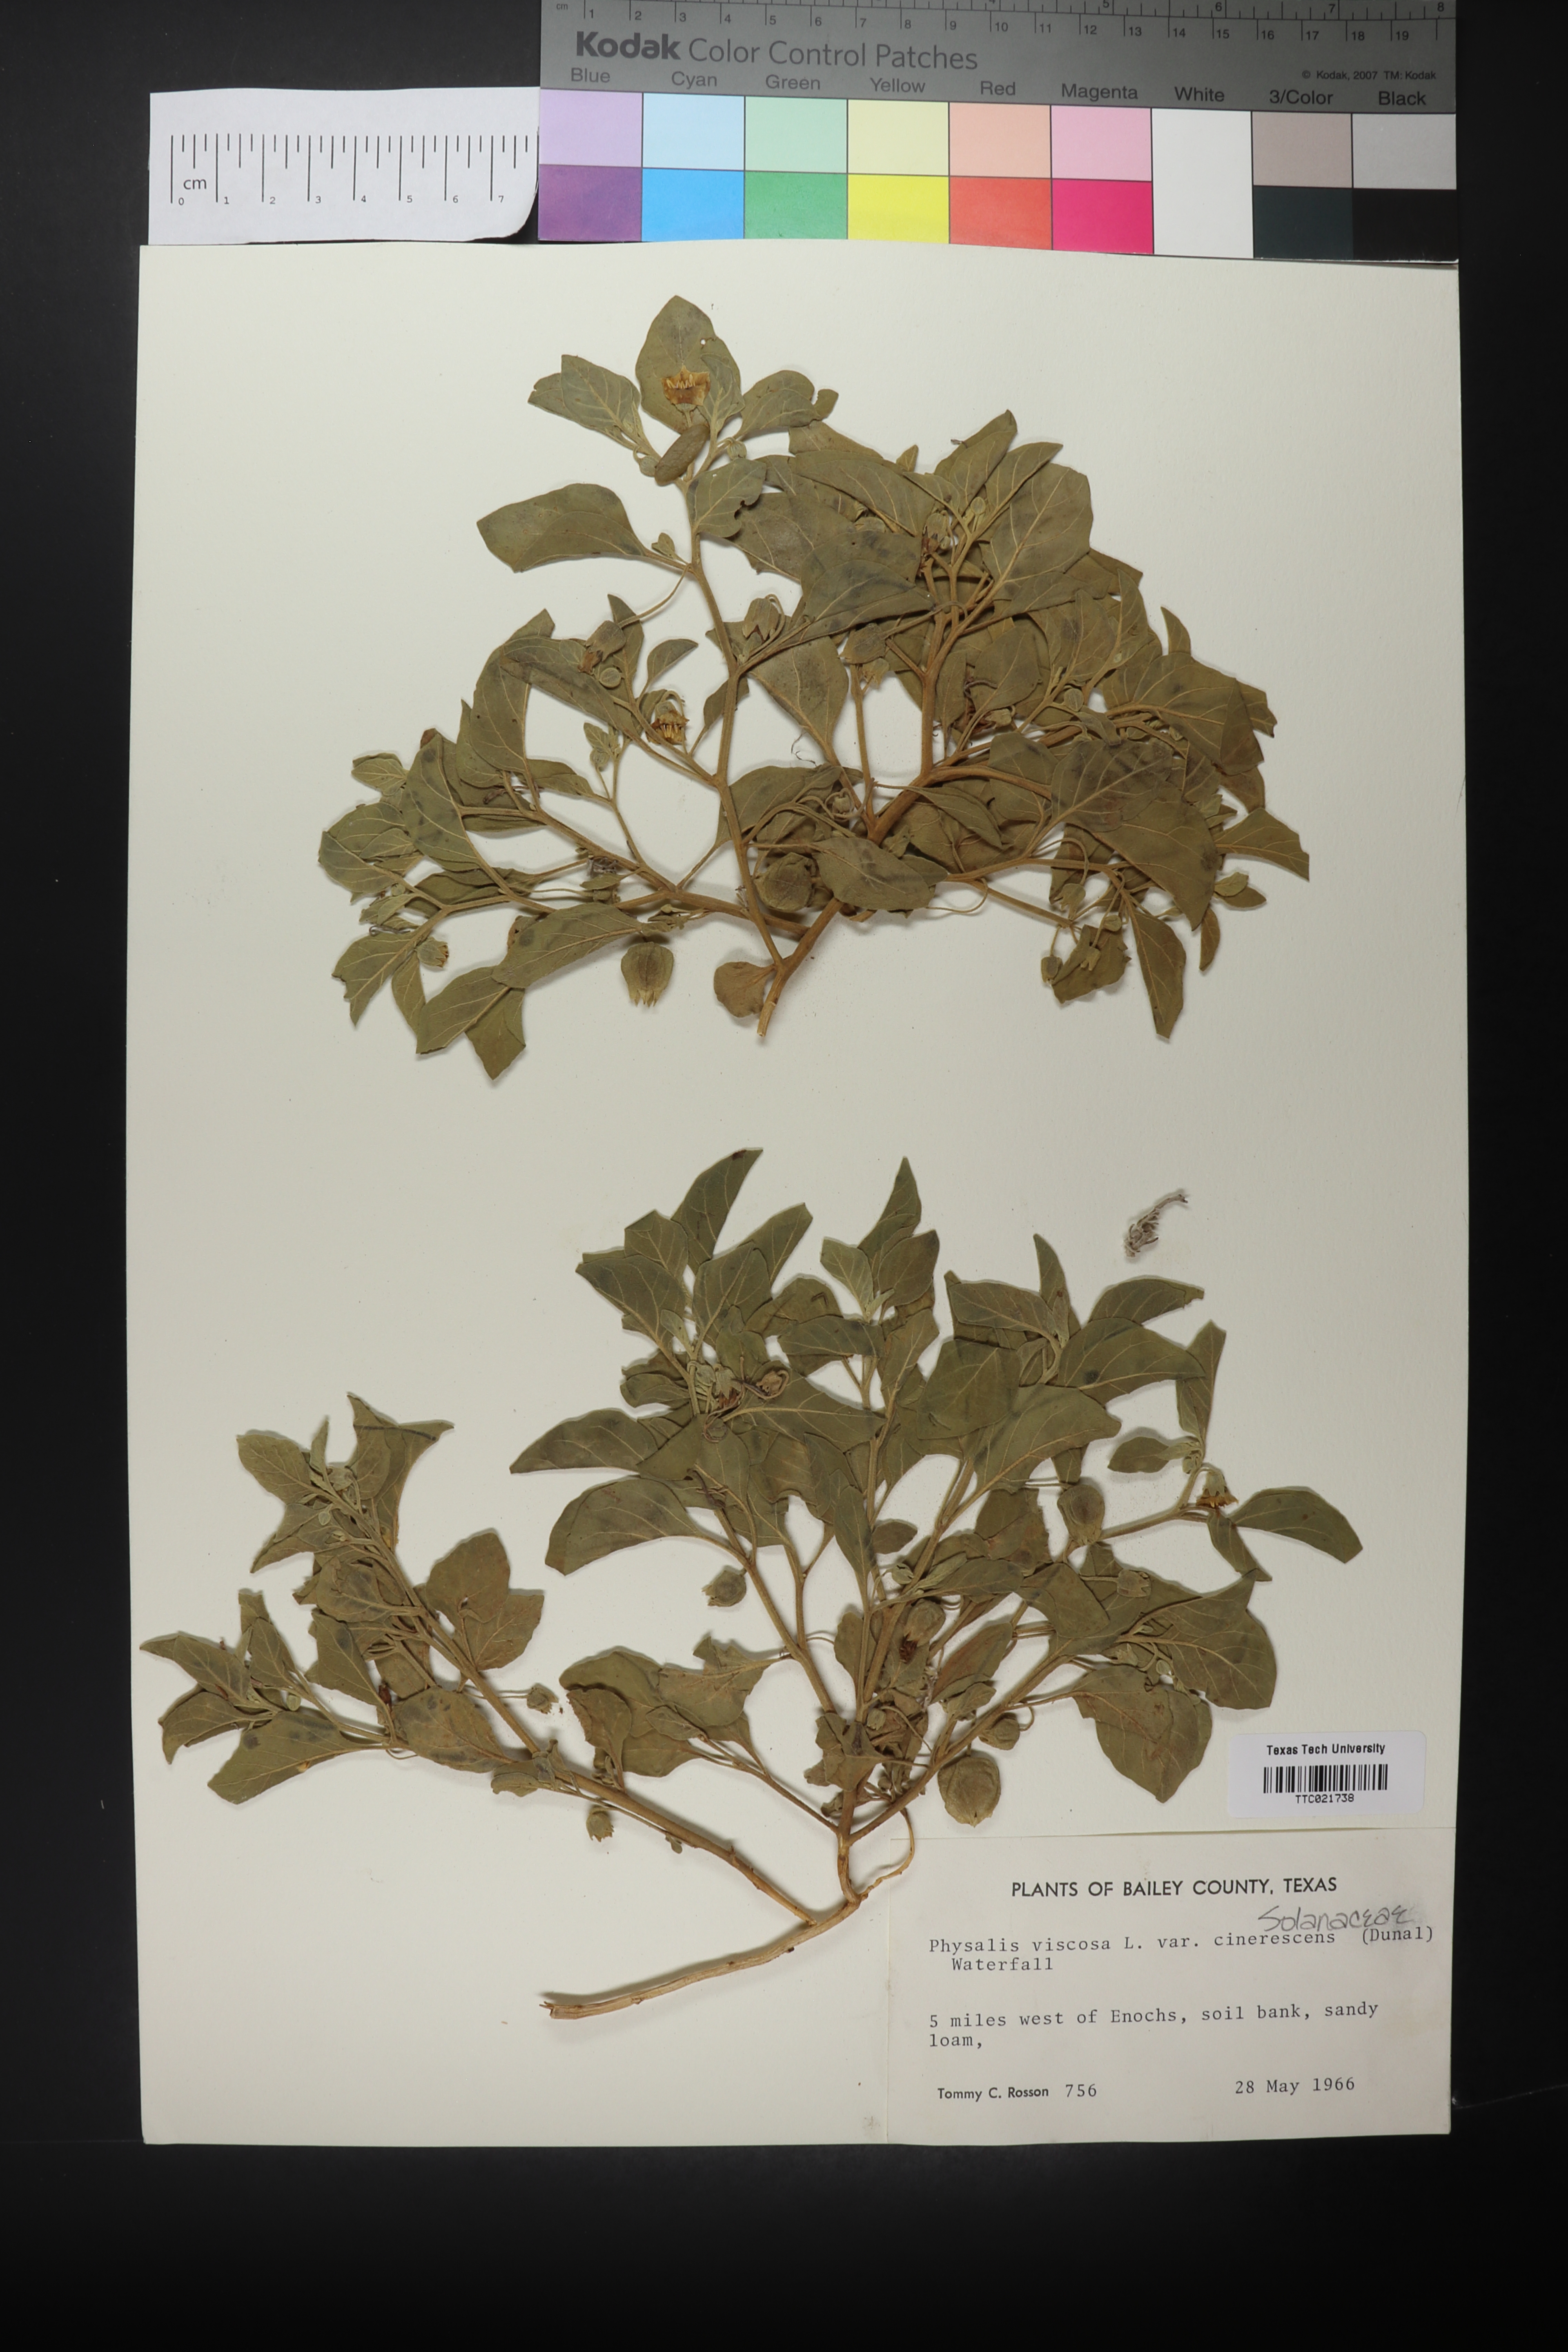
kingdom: Plantae
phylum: Tracheophyta
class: Magnoliopsida
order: Solanales
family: Solanaceae
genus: Physalis
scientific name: Physalis viscosa
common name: Stellate ground-cherry
